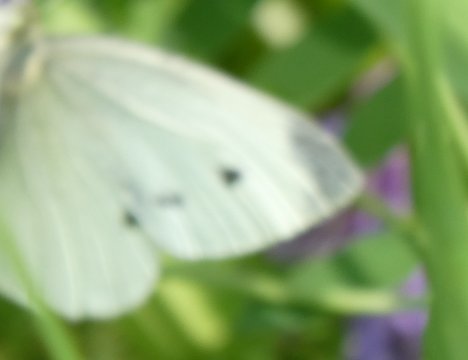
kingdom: Animalia
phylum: Arthropoda
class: Insecta
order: Lepidoptera
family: Pieridae
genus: Pieris
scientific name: Pieris rapae
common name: Cabbage White
